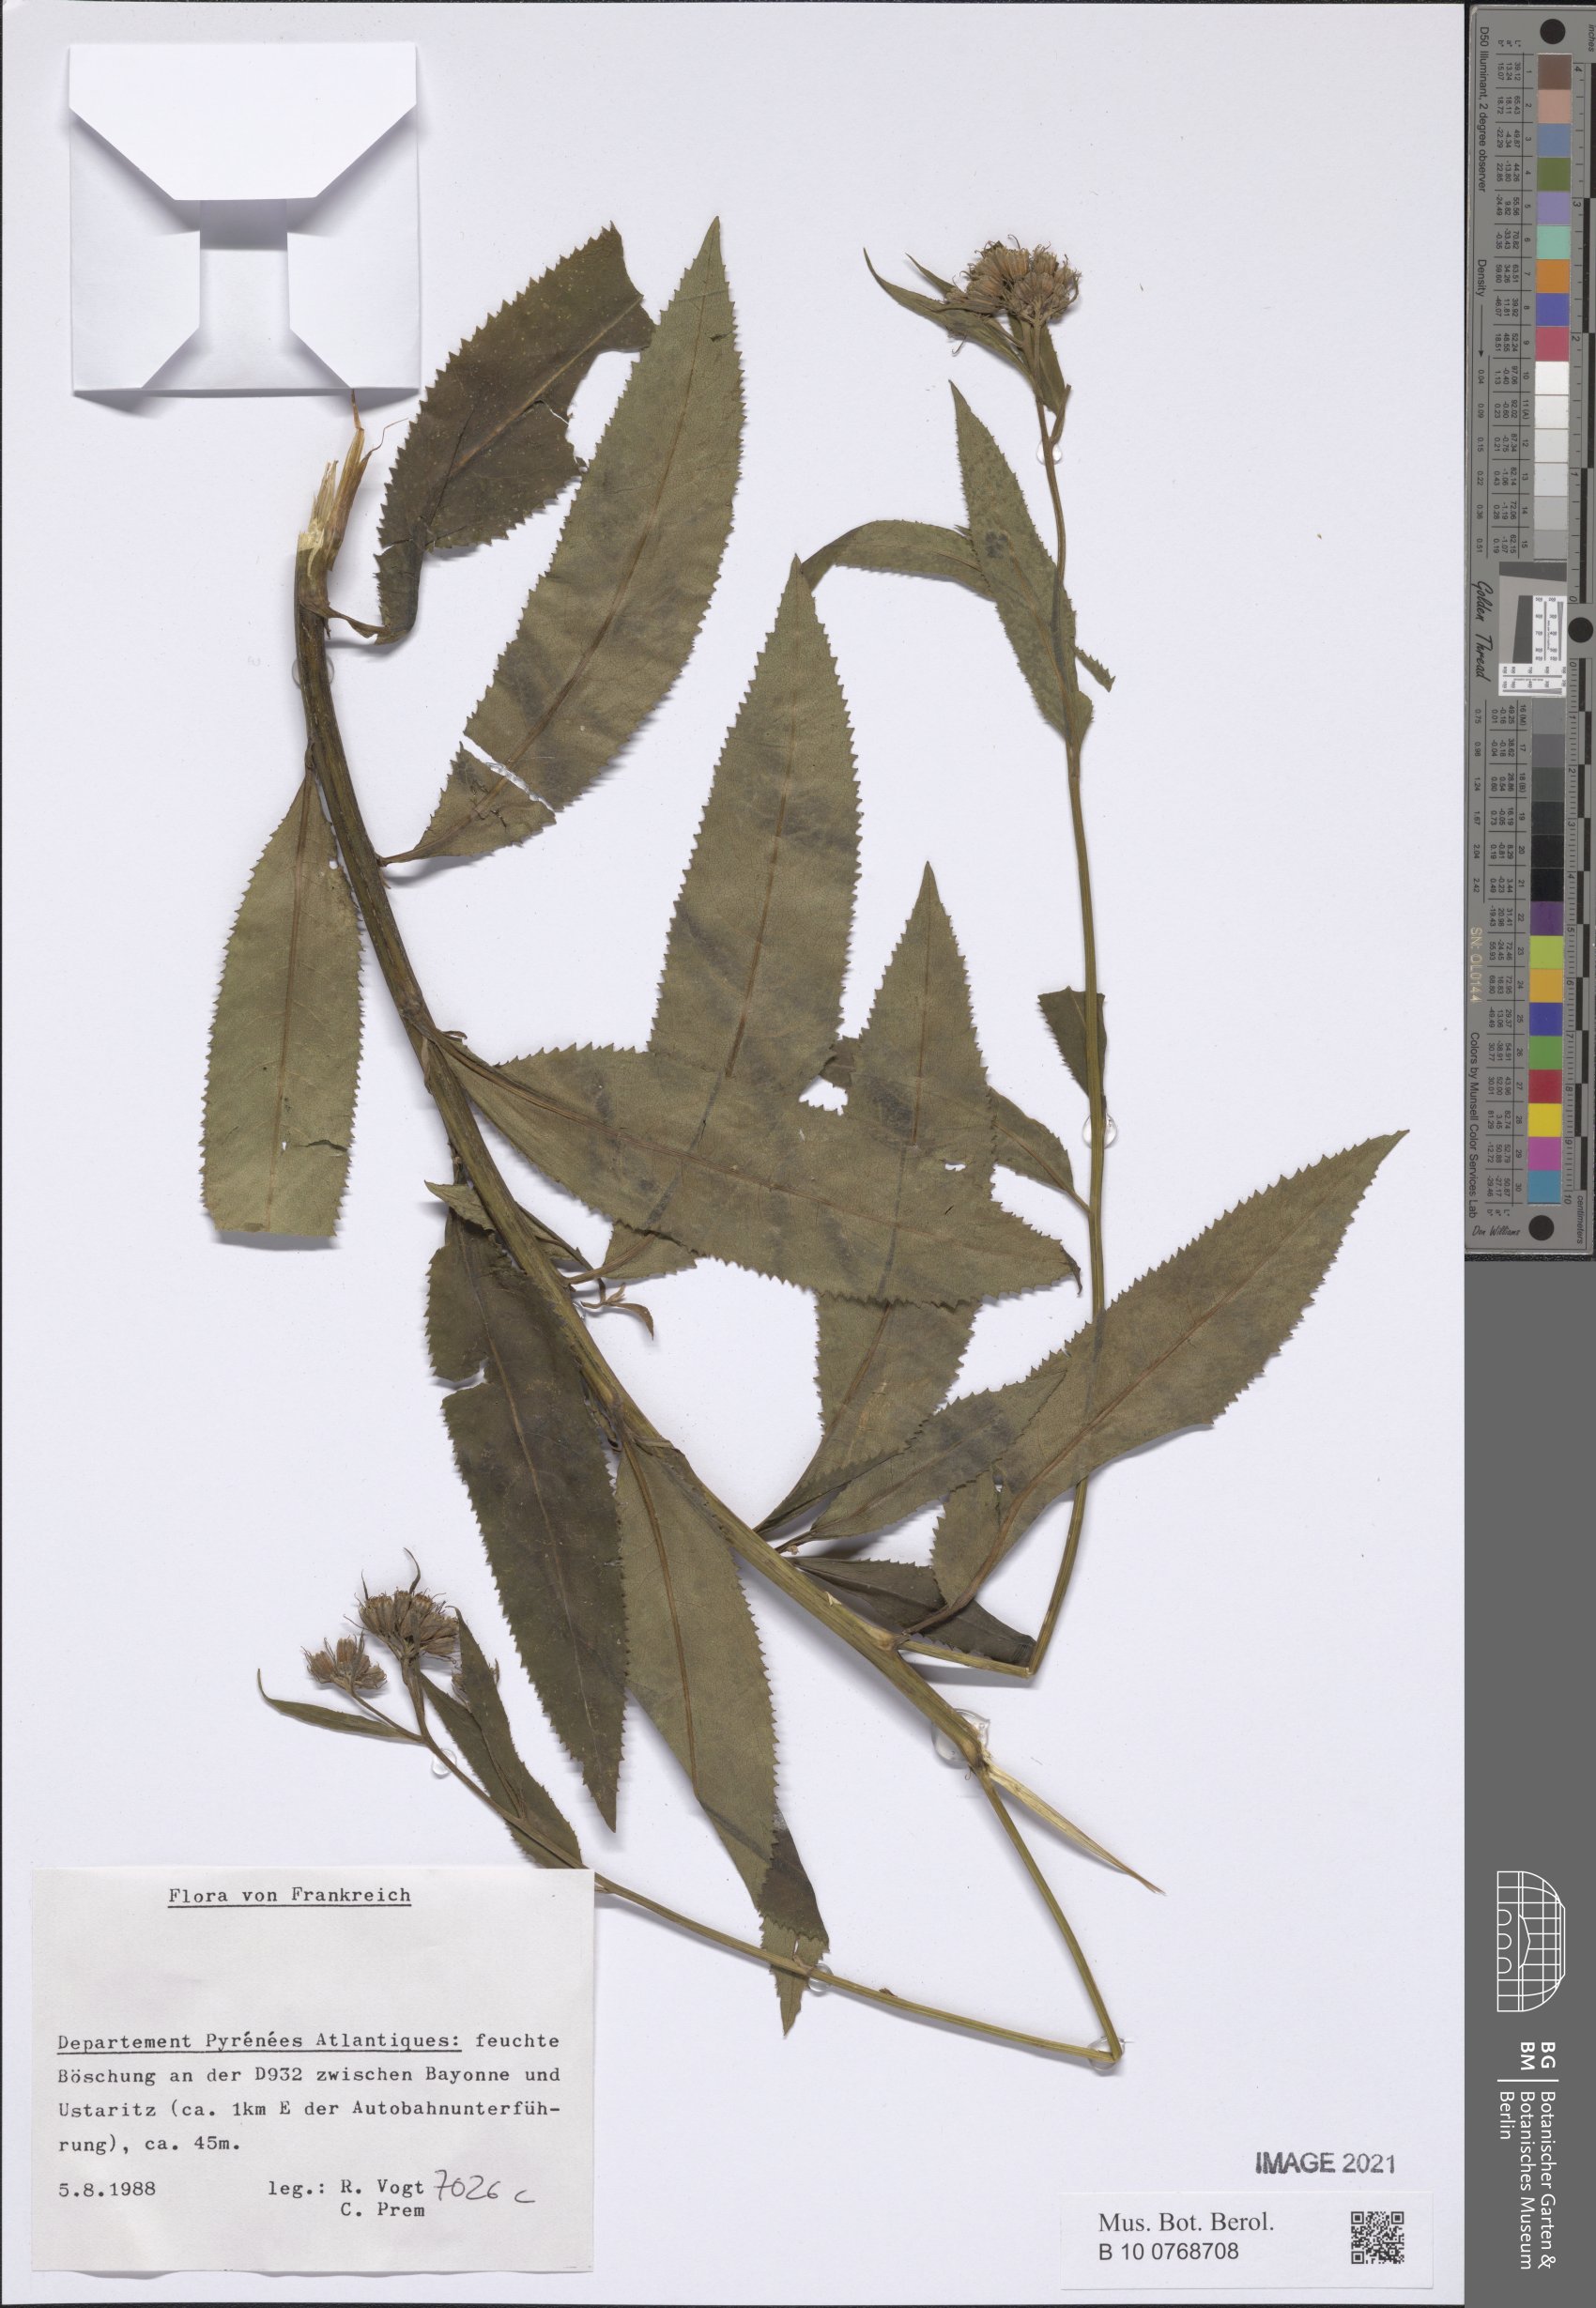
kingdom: Plantae
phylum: Tracheophyta
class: Magnoliopsida
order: Asterales
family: Asteraceae
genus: Senecio
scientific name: Senecio
